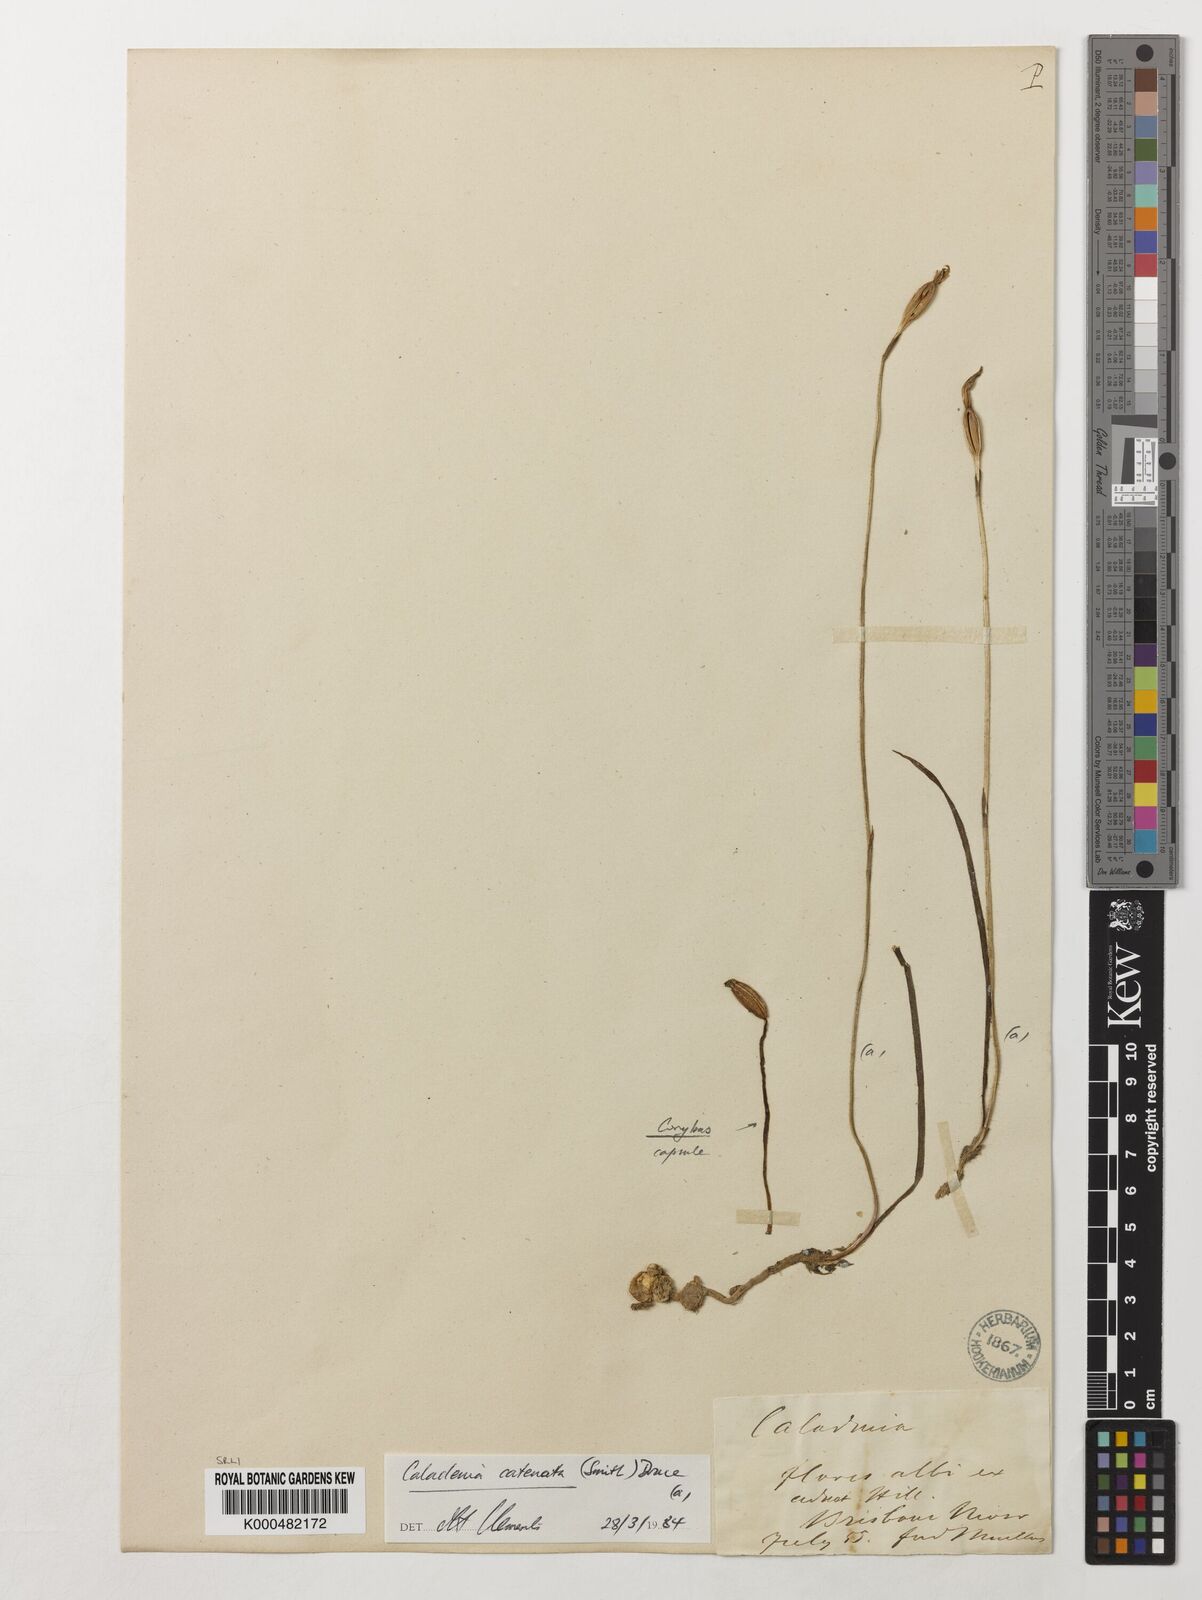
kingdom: Plantae
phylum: Tracheophyta
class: Liliopsida
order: Asparagales
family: Orchidaceae
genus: Caladenia
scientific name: Caladenia
